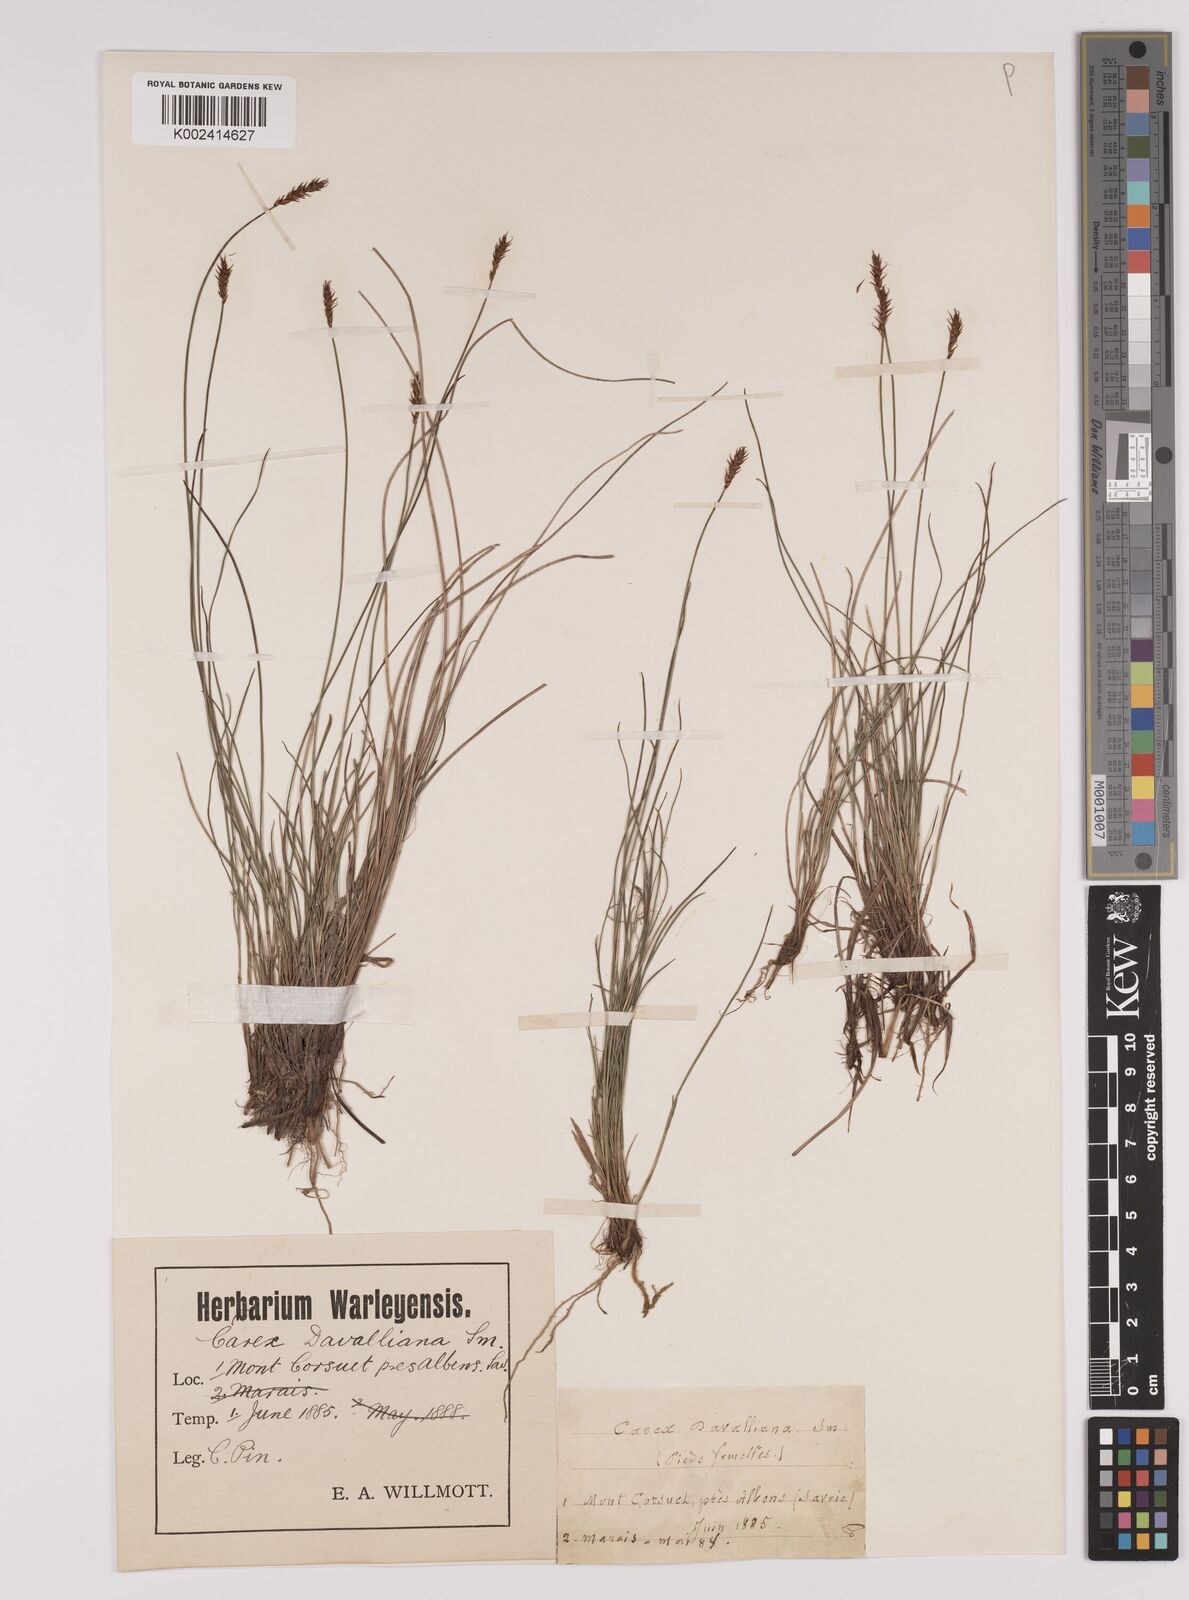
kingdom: Plantae
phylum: Tracheophyta
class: Liliopsida
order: Poales
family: Cyperaceae
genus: Carex
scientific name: Carex davalliana
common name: Davall's sedge
